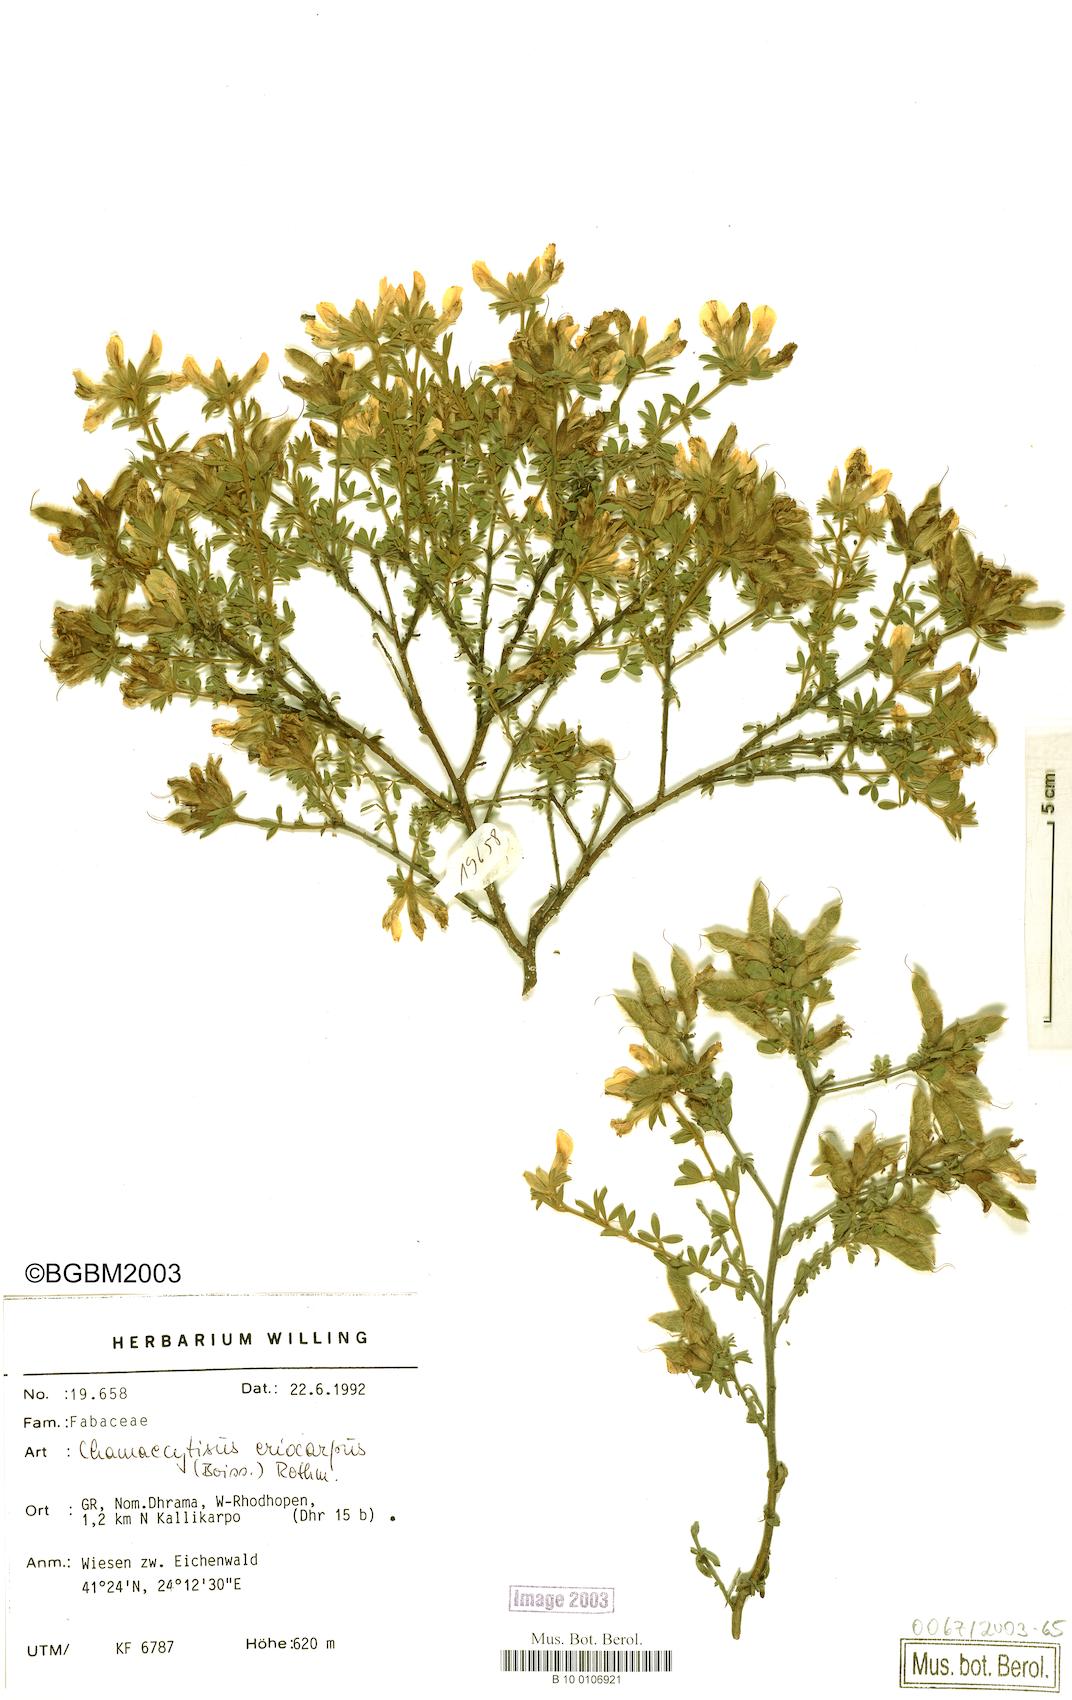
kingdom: Plantae
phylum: Tracheophyta
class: Magnoliopsida
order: Fabales
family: Fabaceae
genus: Chamaecytisus
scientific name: Chamaecytisus eriocarpus
